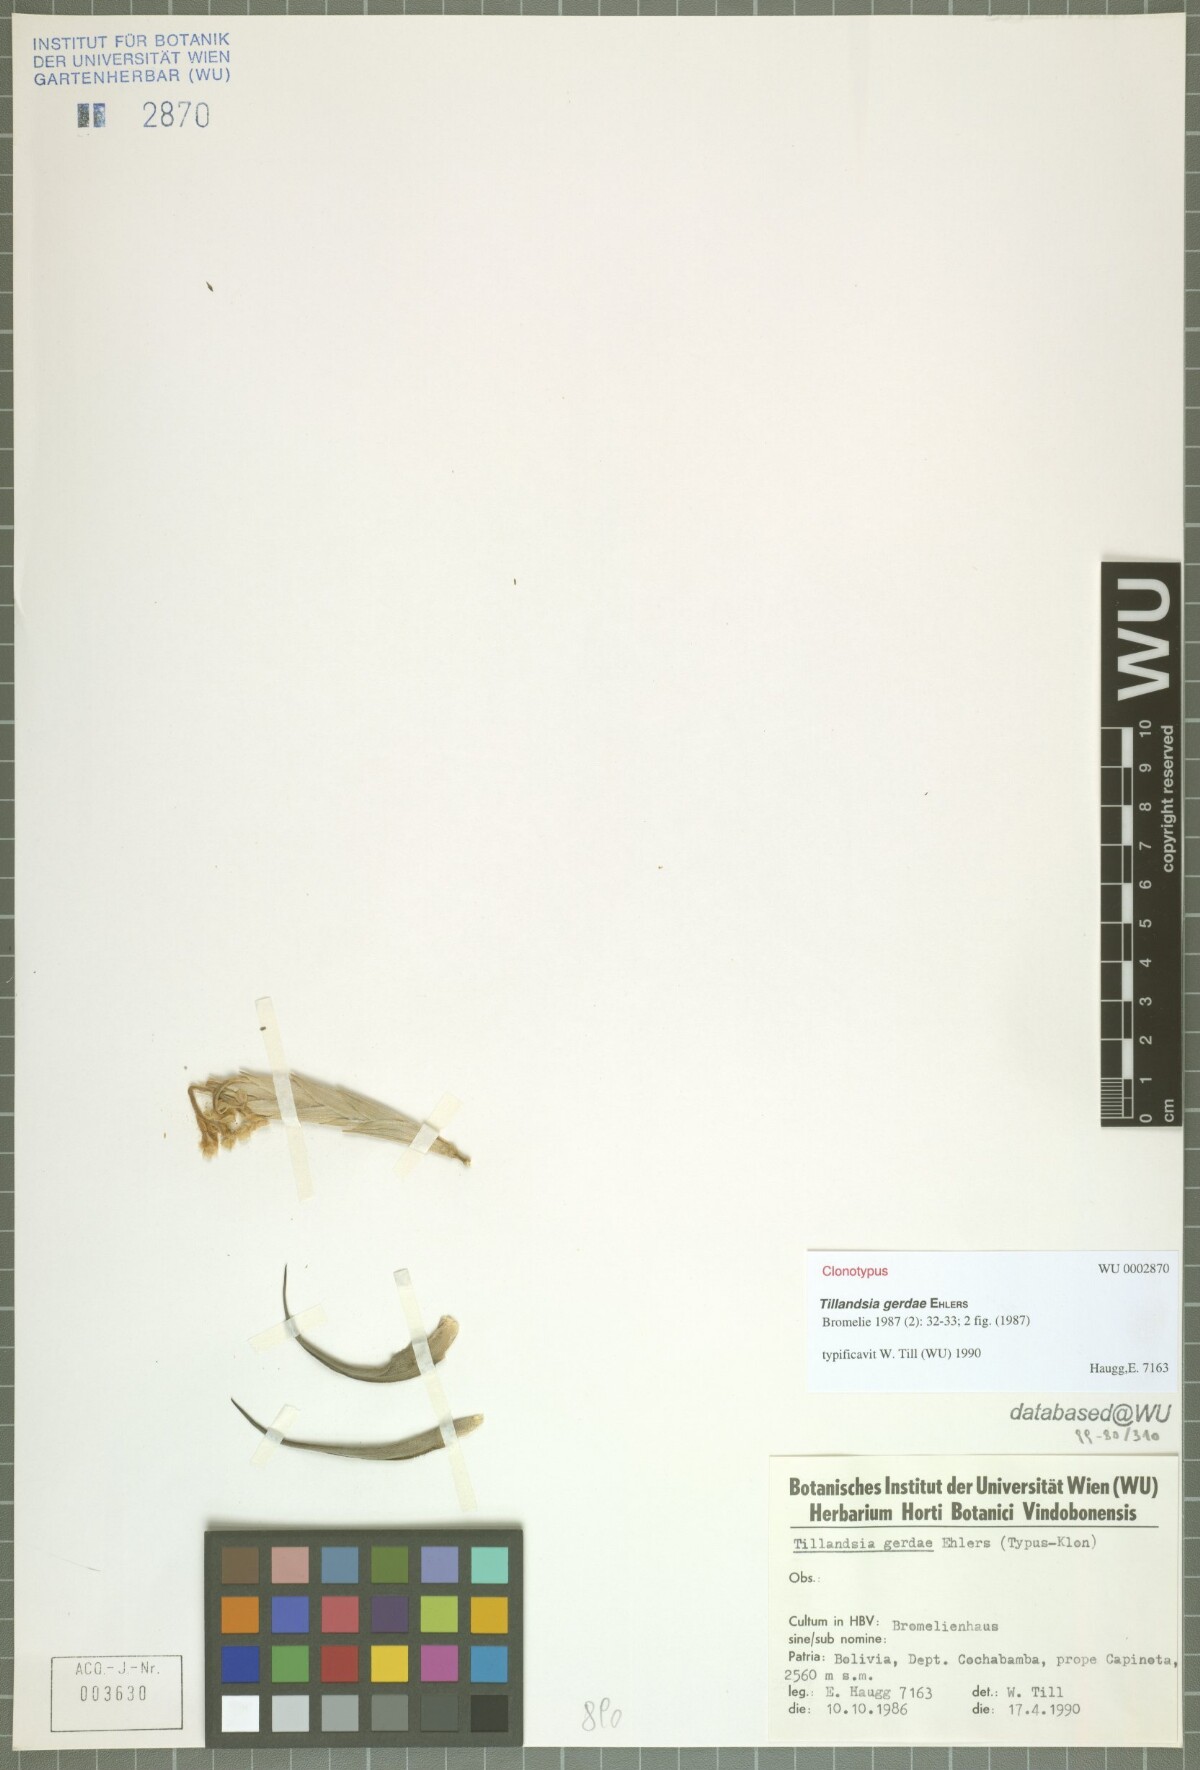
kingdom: Plantae
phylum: Tracheophyta
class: Liliopsida
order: Poales
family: Bromeliaceae
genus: Tillandsia
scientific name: Tillandsia gerdae
